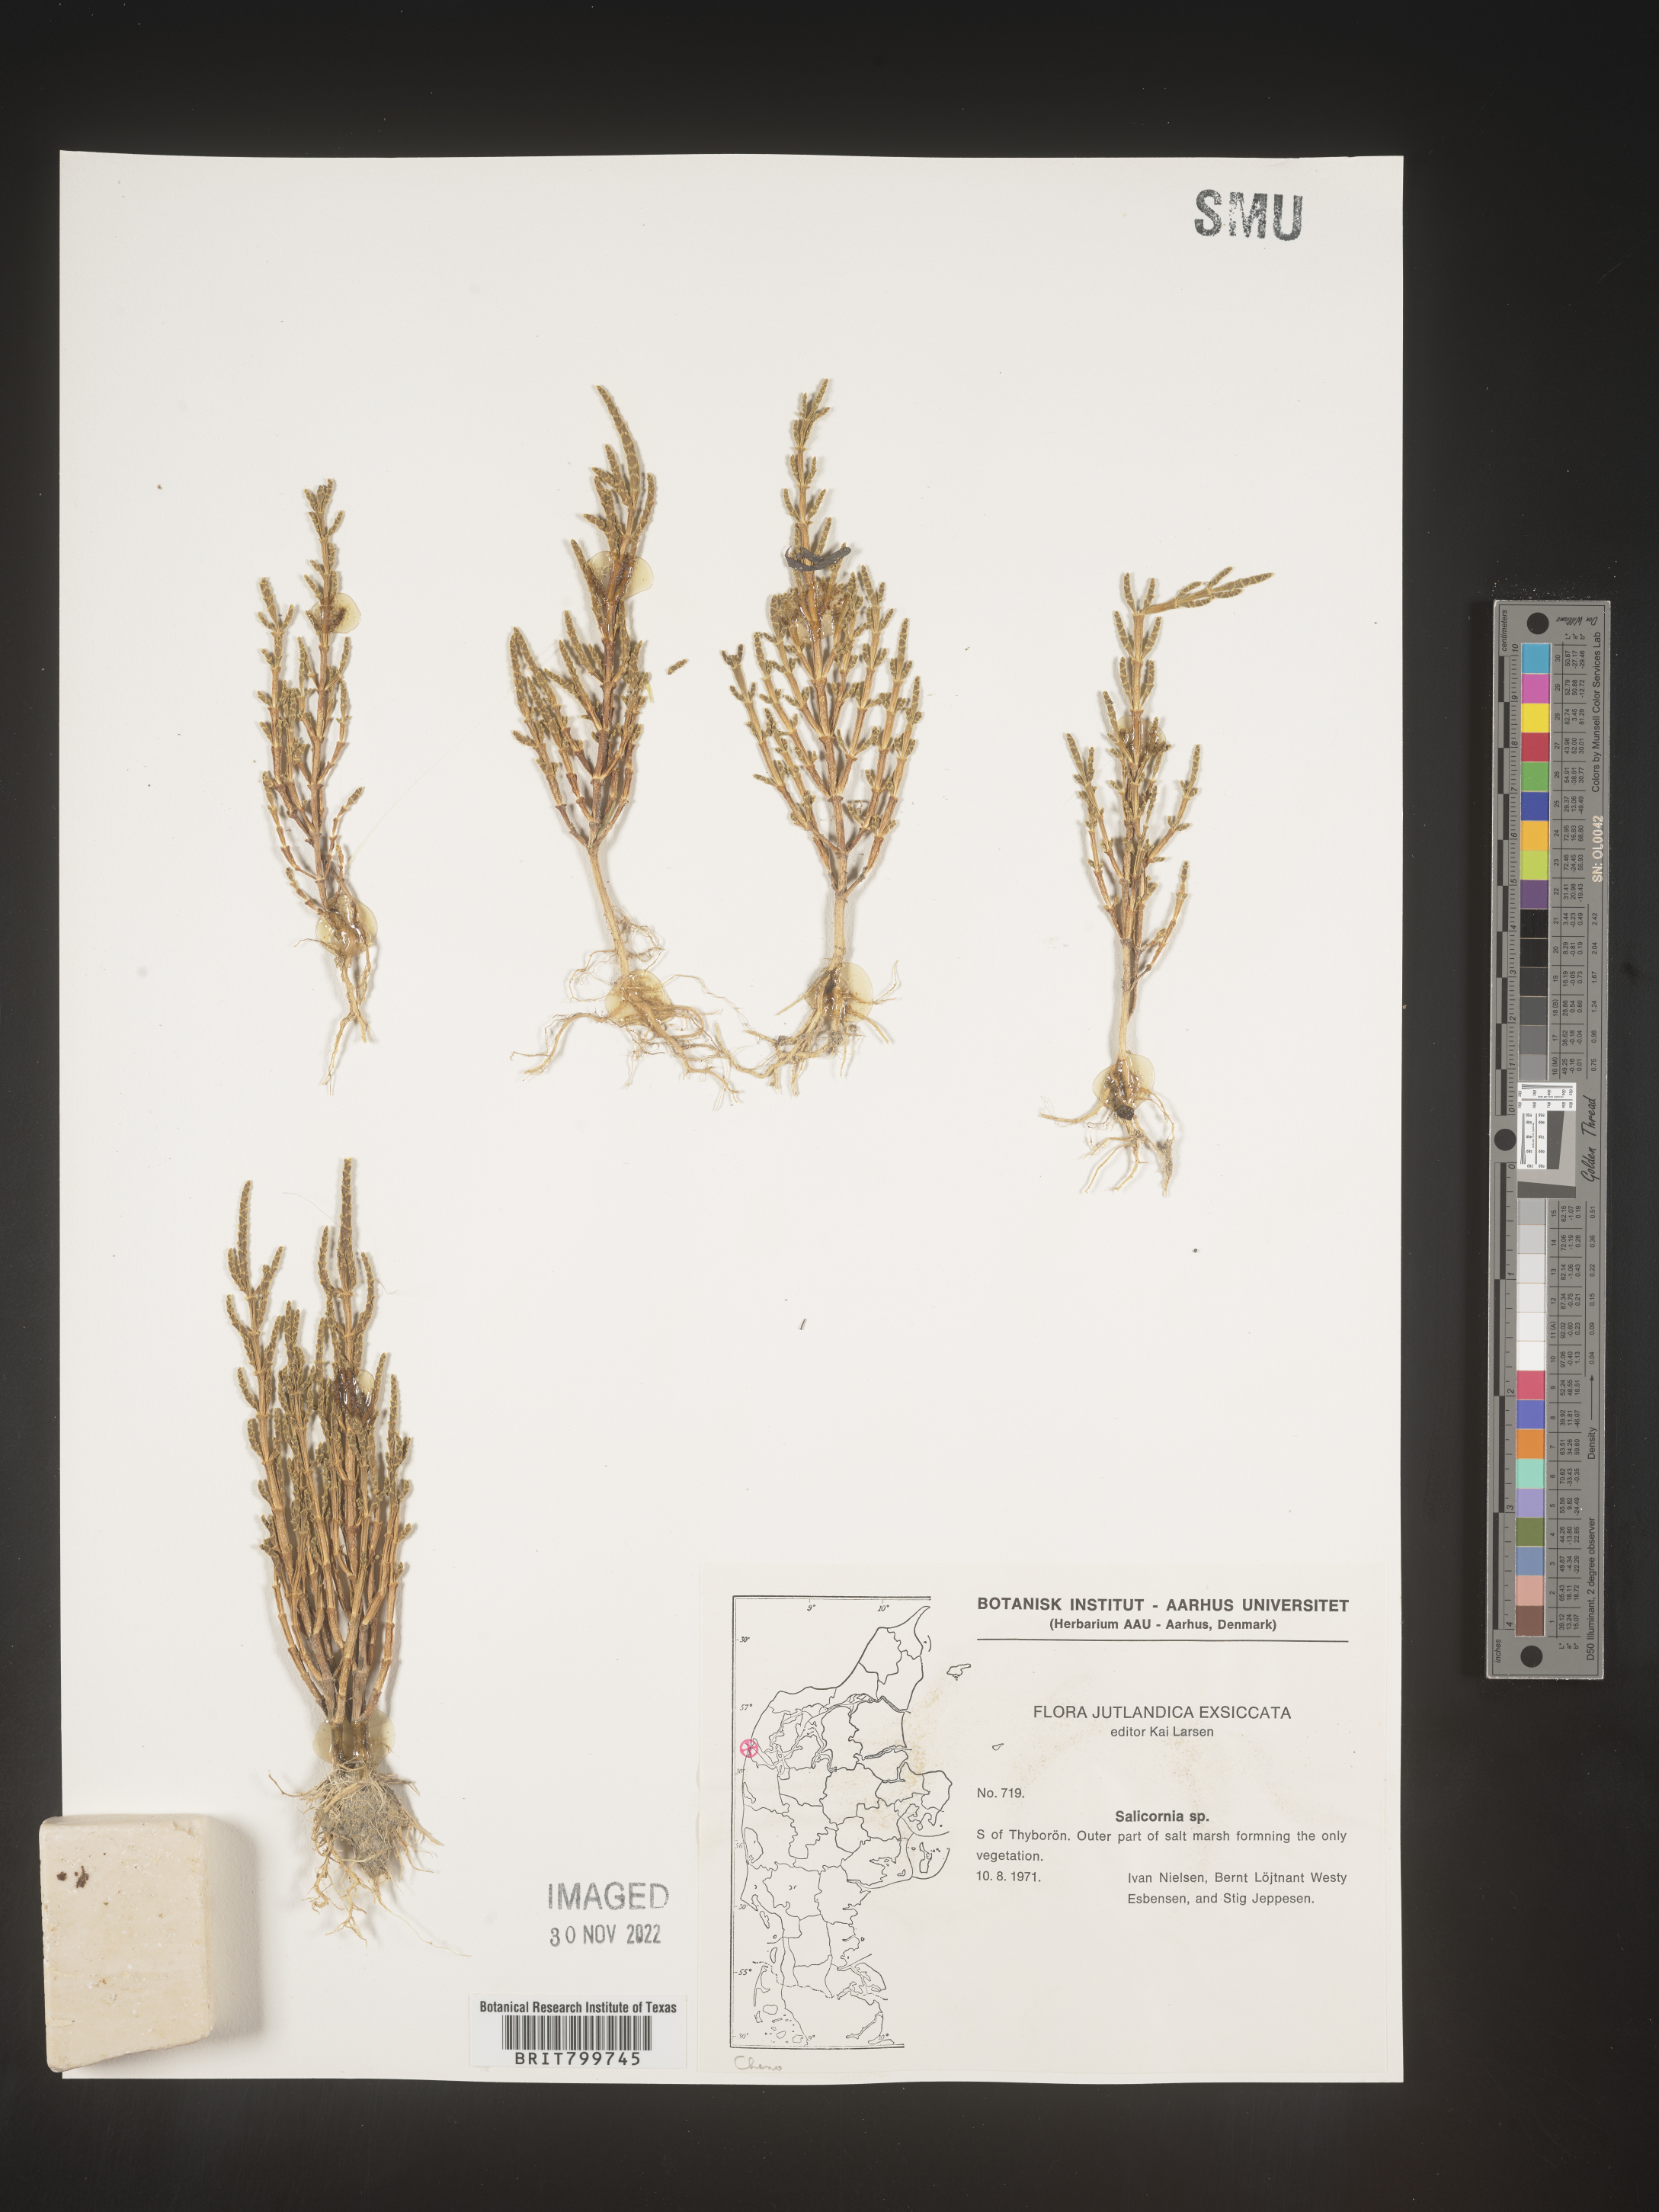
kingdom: Plantae
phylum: Tracheophyta
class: Magnoliopsida
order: Caryophyllales
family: Amaranthaceae
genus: Salicornia
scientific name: Salicornia
